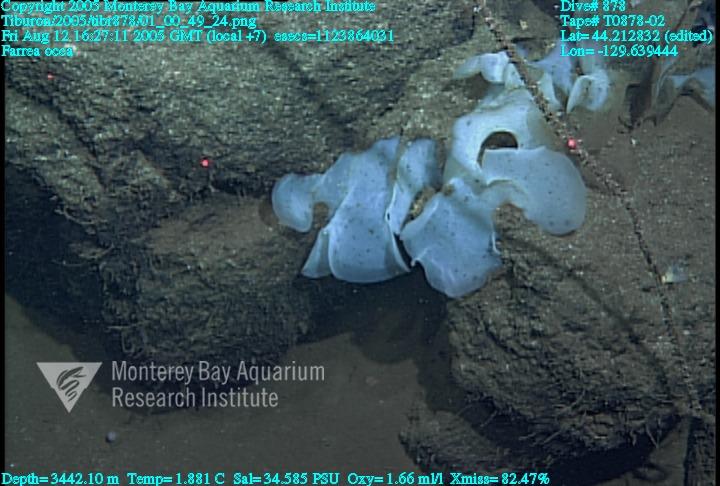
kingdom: Animalia
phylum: Porifera
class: Hexactinellida
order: Sceptrulophora
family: Farreidae
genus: Farrea
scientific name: Farrea occa
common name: Reversed glass sponge
